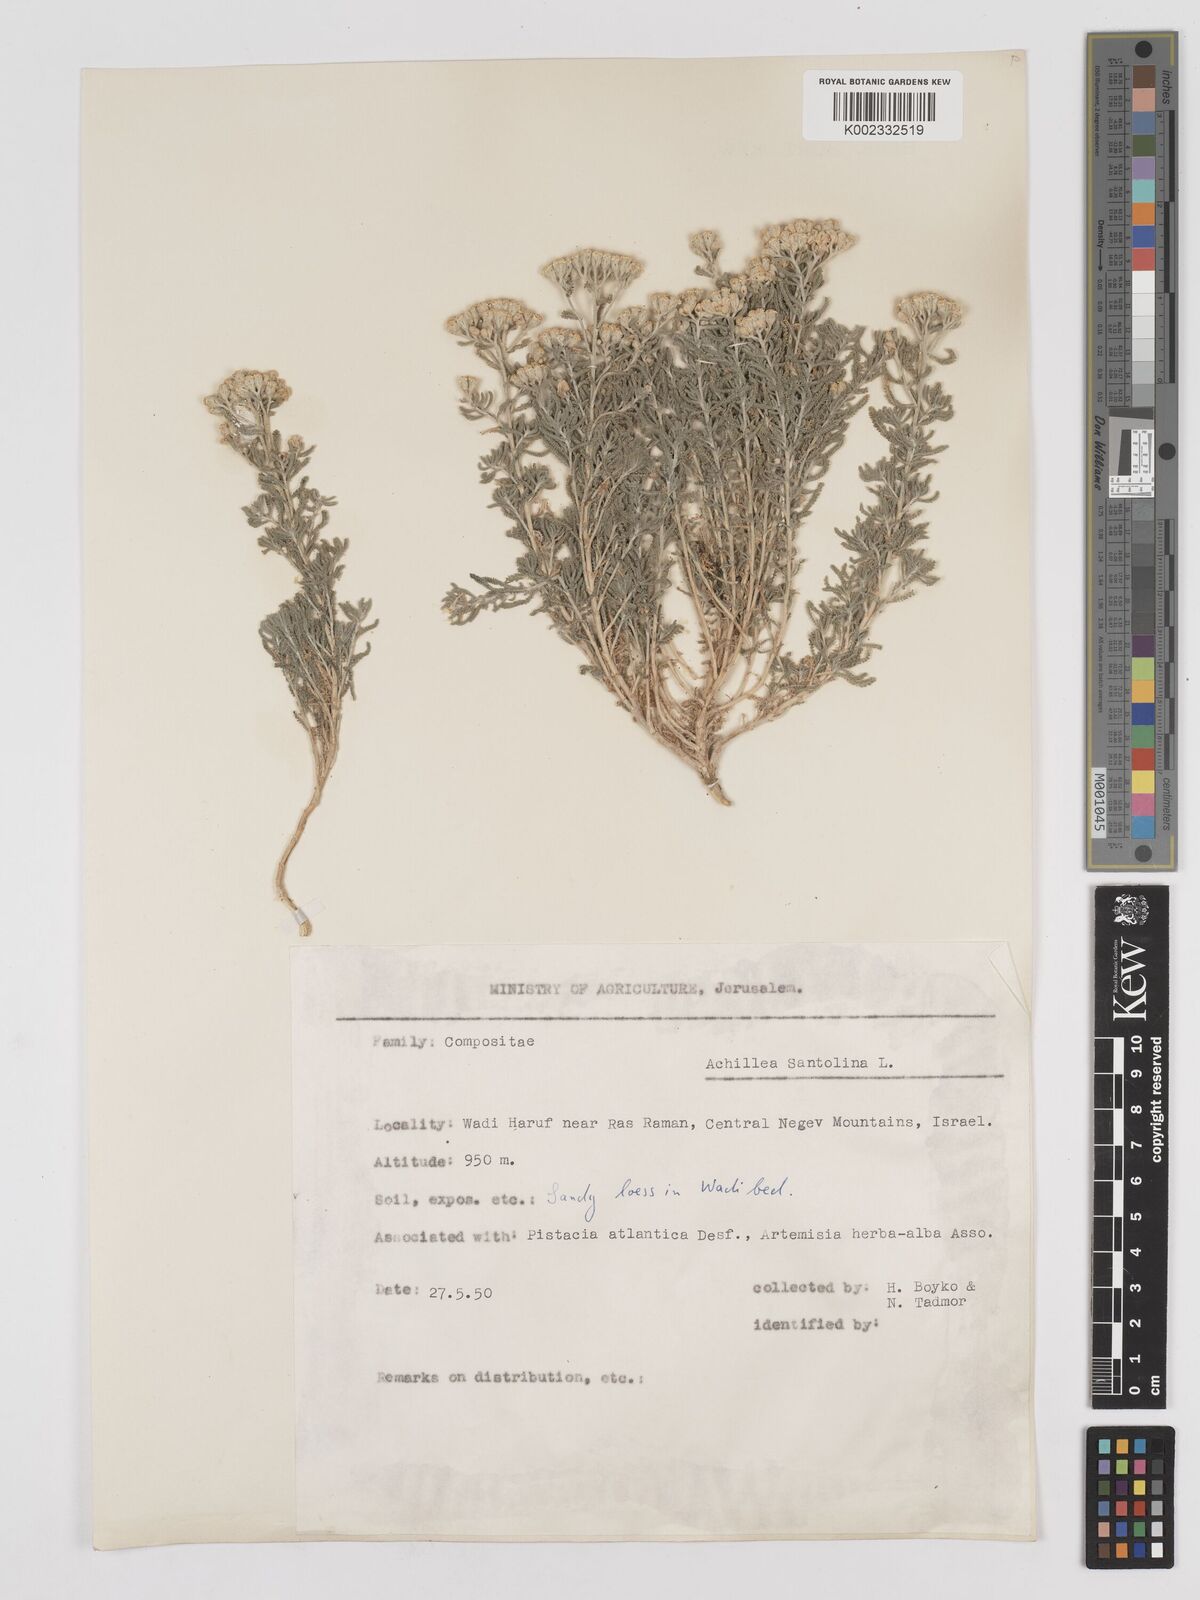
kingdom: Plantae
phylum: Tracheophyta
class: Magnoliopsida
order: Asterales
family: Asteraceae
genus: Achillea
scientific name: Achillea tenuifolia
